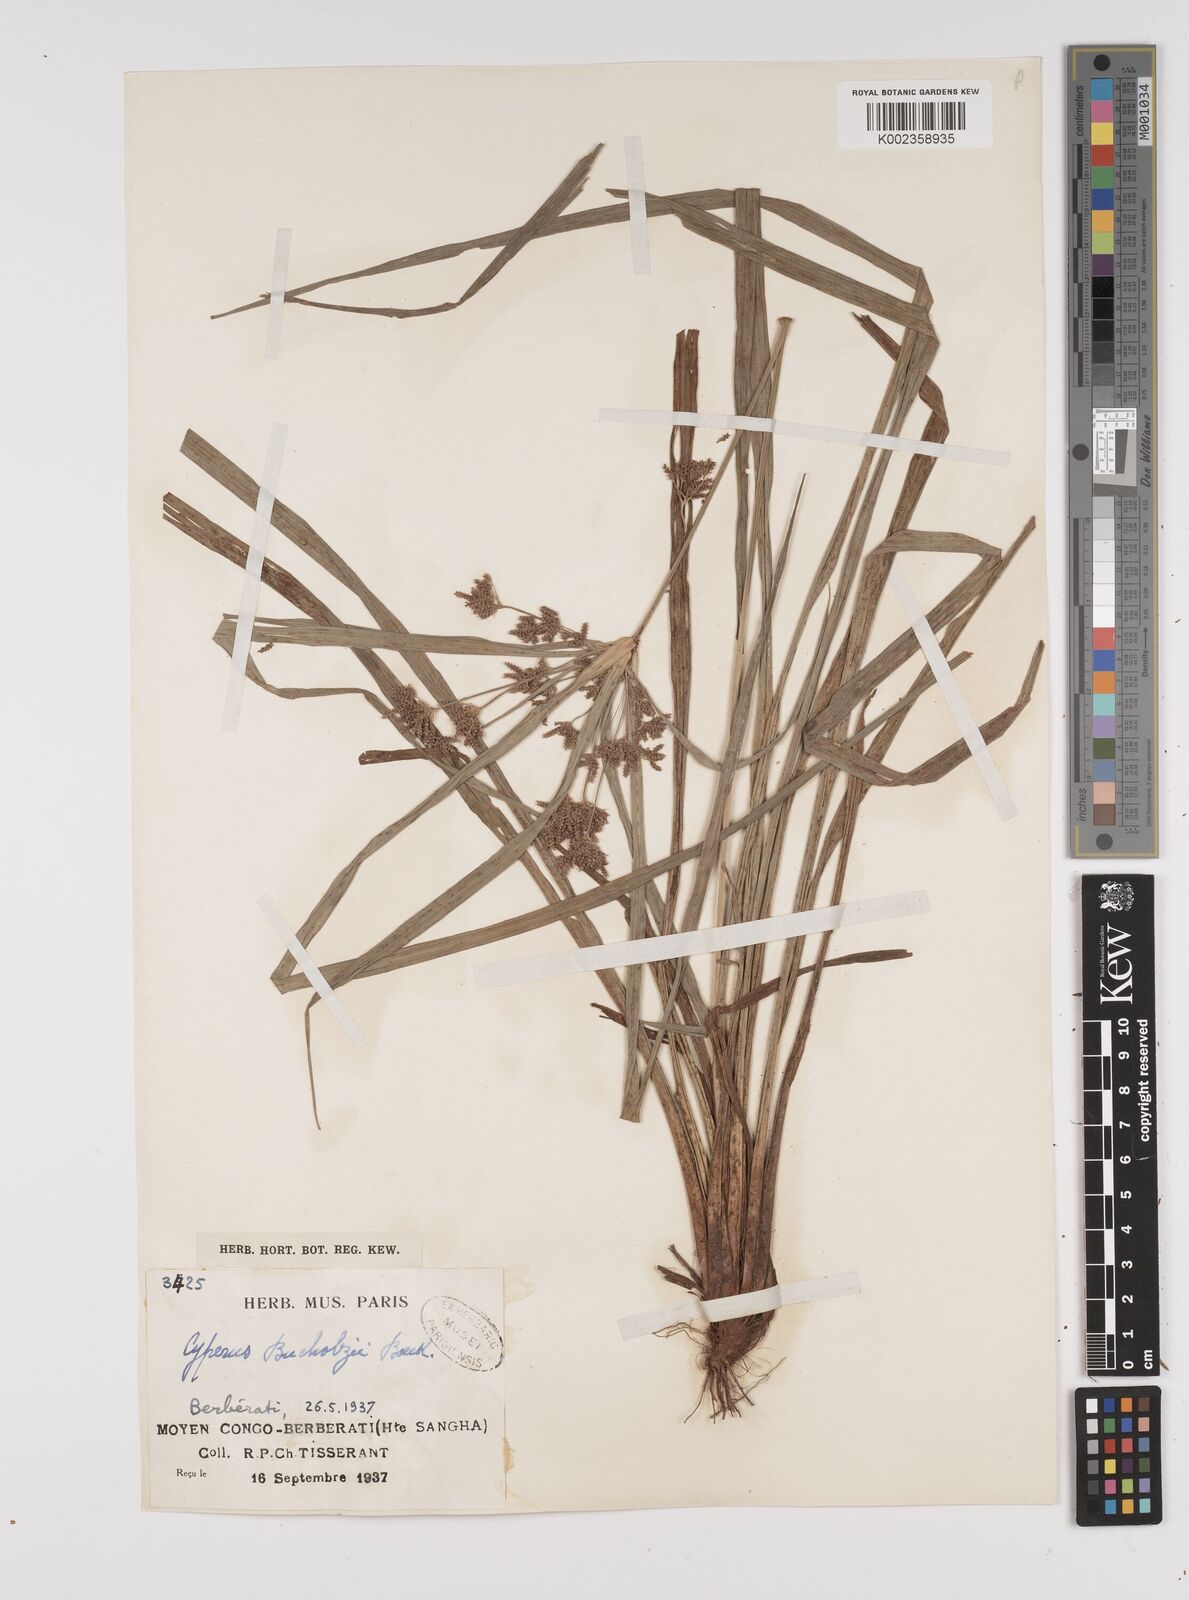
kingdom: Plantae
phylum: Tracheophyta
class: Liliopsida
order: Poales
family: Cyperaceae
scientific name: Cyperaceae
